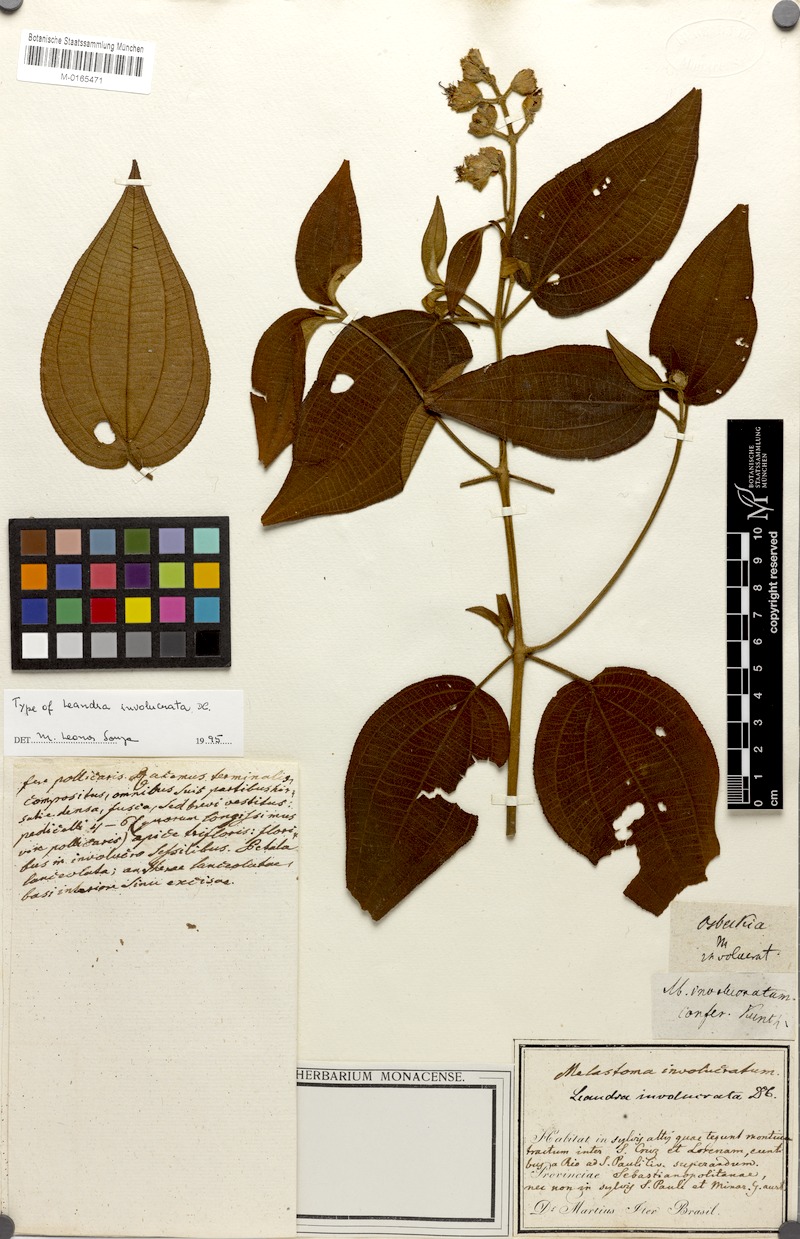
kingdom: Plantae
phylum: Tracheophyta
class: Magnoliopsida
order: Myrtales
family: Melastomataceae
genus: Miconia
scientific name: Miconia leaumbellata
